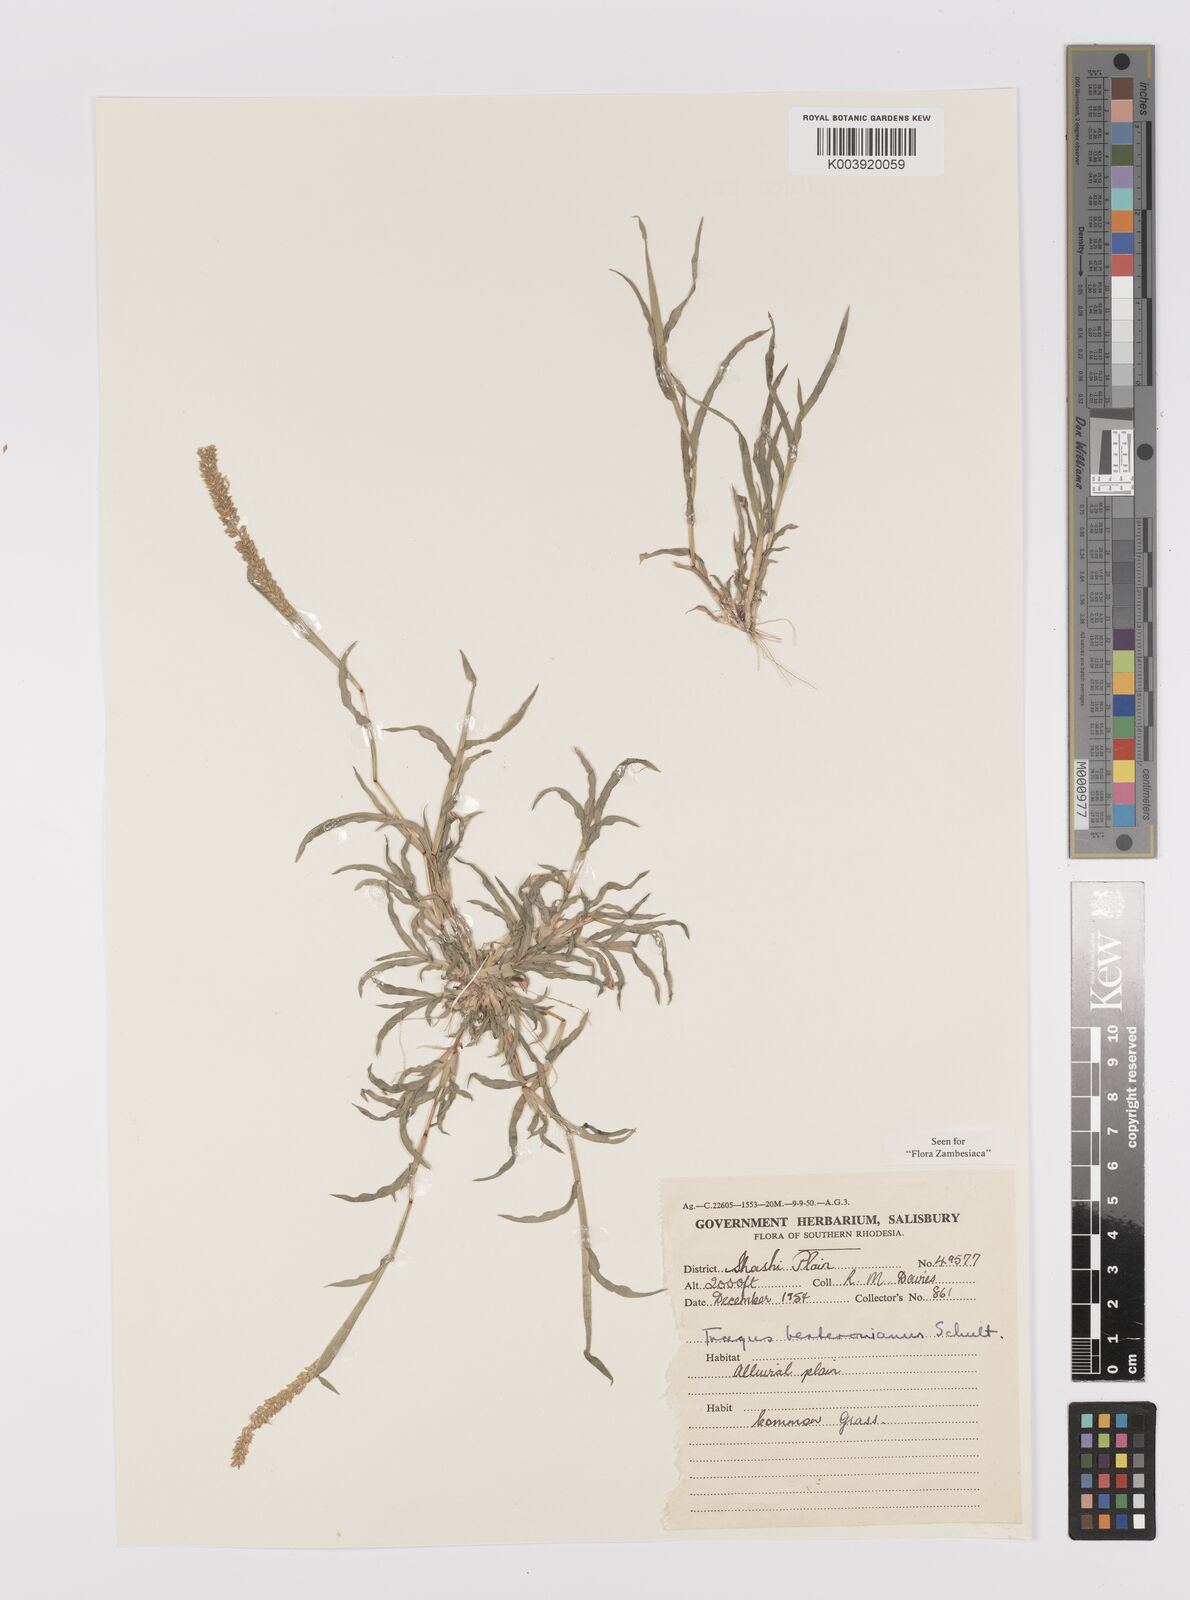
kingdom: Plantae
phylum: Tracheophyta
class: Liliopsida
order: Poales
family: Poaceae
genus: Tragus
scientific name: Tragus berteronianus
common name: African bur-grass
